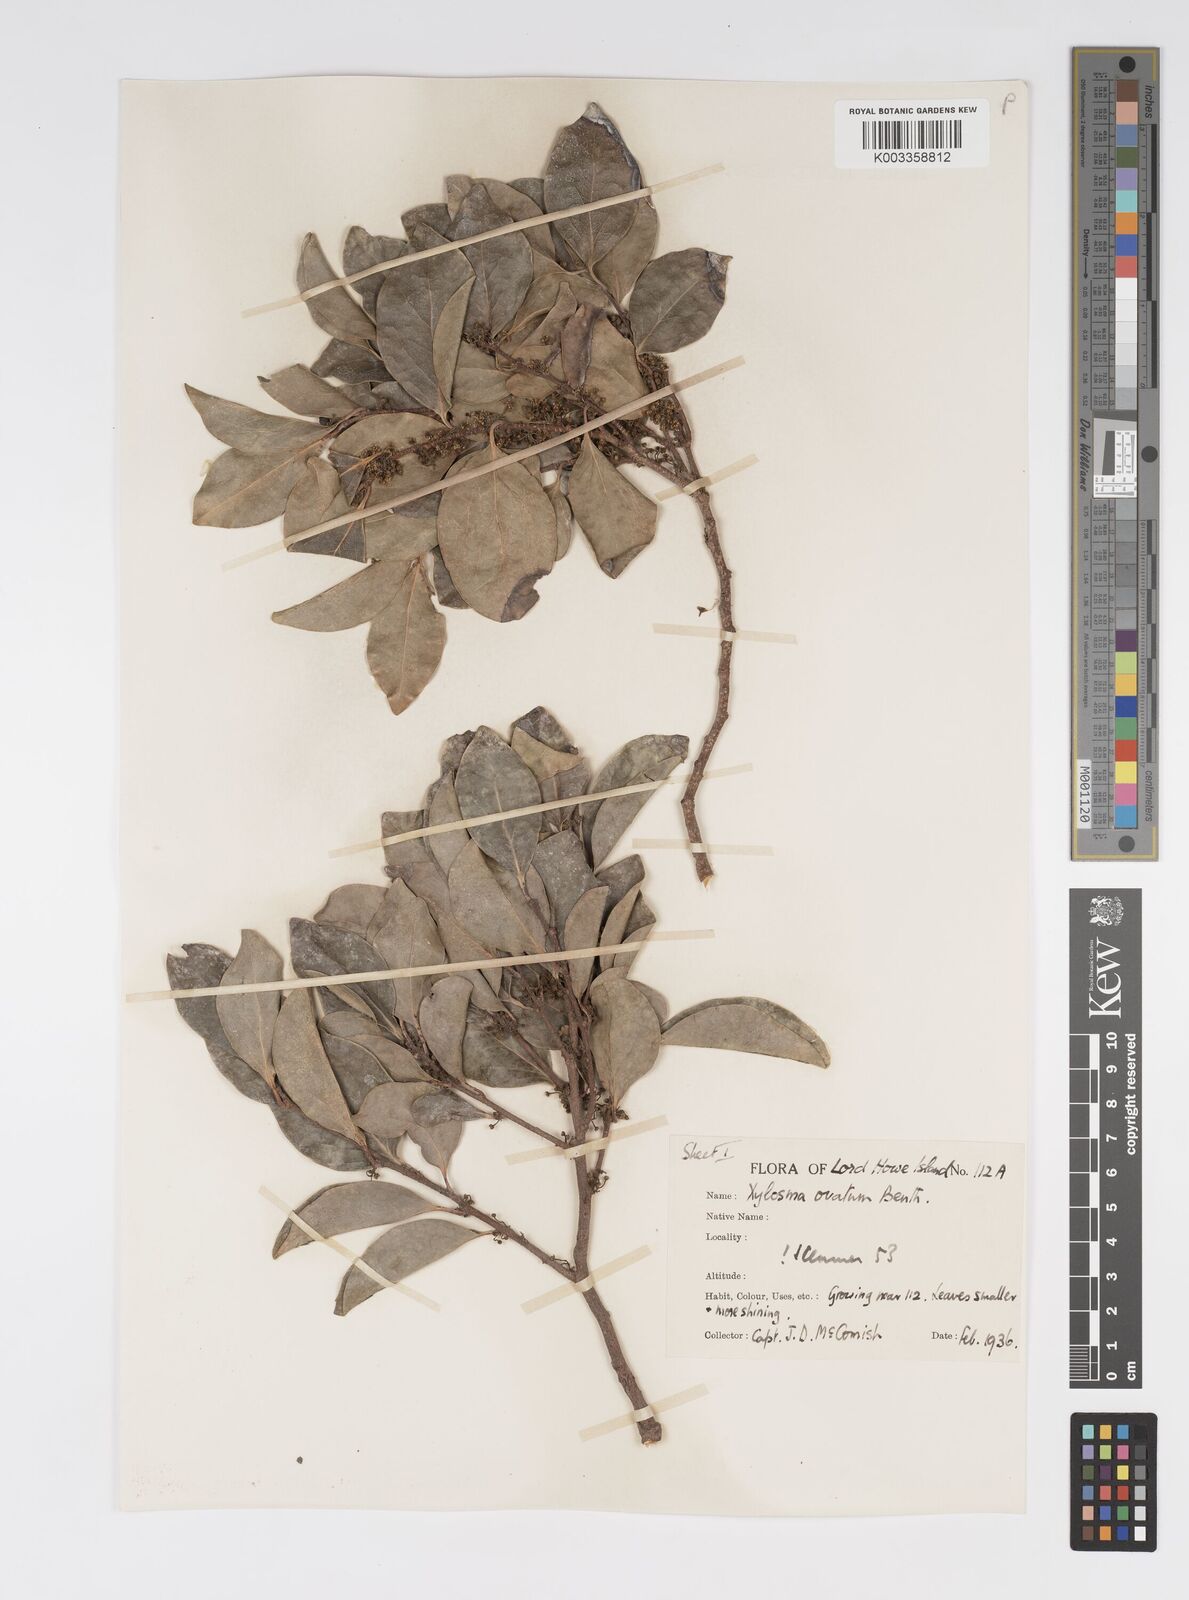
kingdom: Plantae
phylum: Tracheophyta
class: Magnoliopsida
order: Malpighiales
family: Salicaceae
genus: Xylosma
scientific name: Xylosma maidenii
